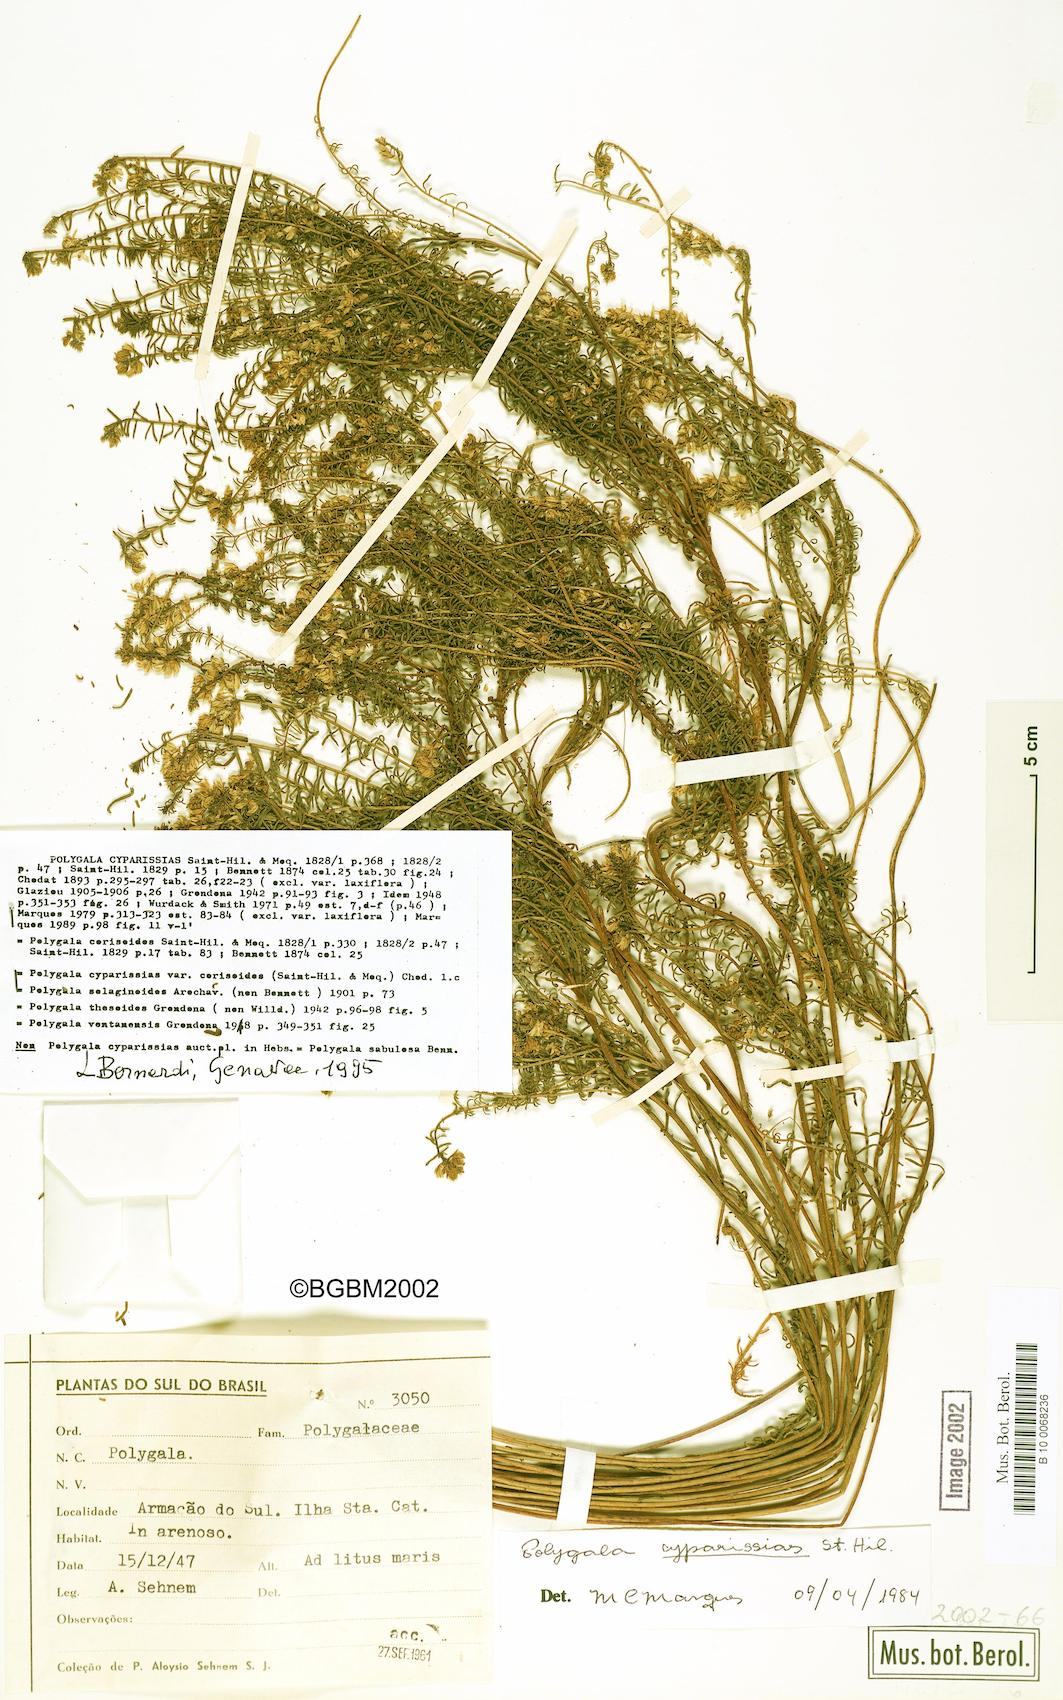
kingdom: Plantae
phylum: Tracheophyta
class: Magnoliopsida
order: Fabales
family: Polygalaceae
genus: Polygala
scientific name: Polygala cyparissias
